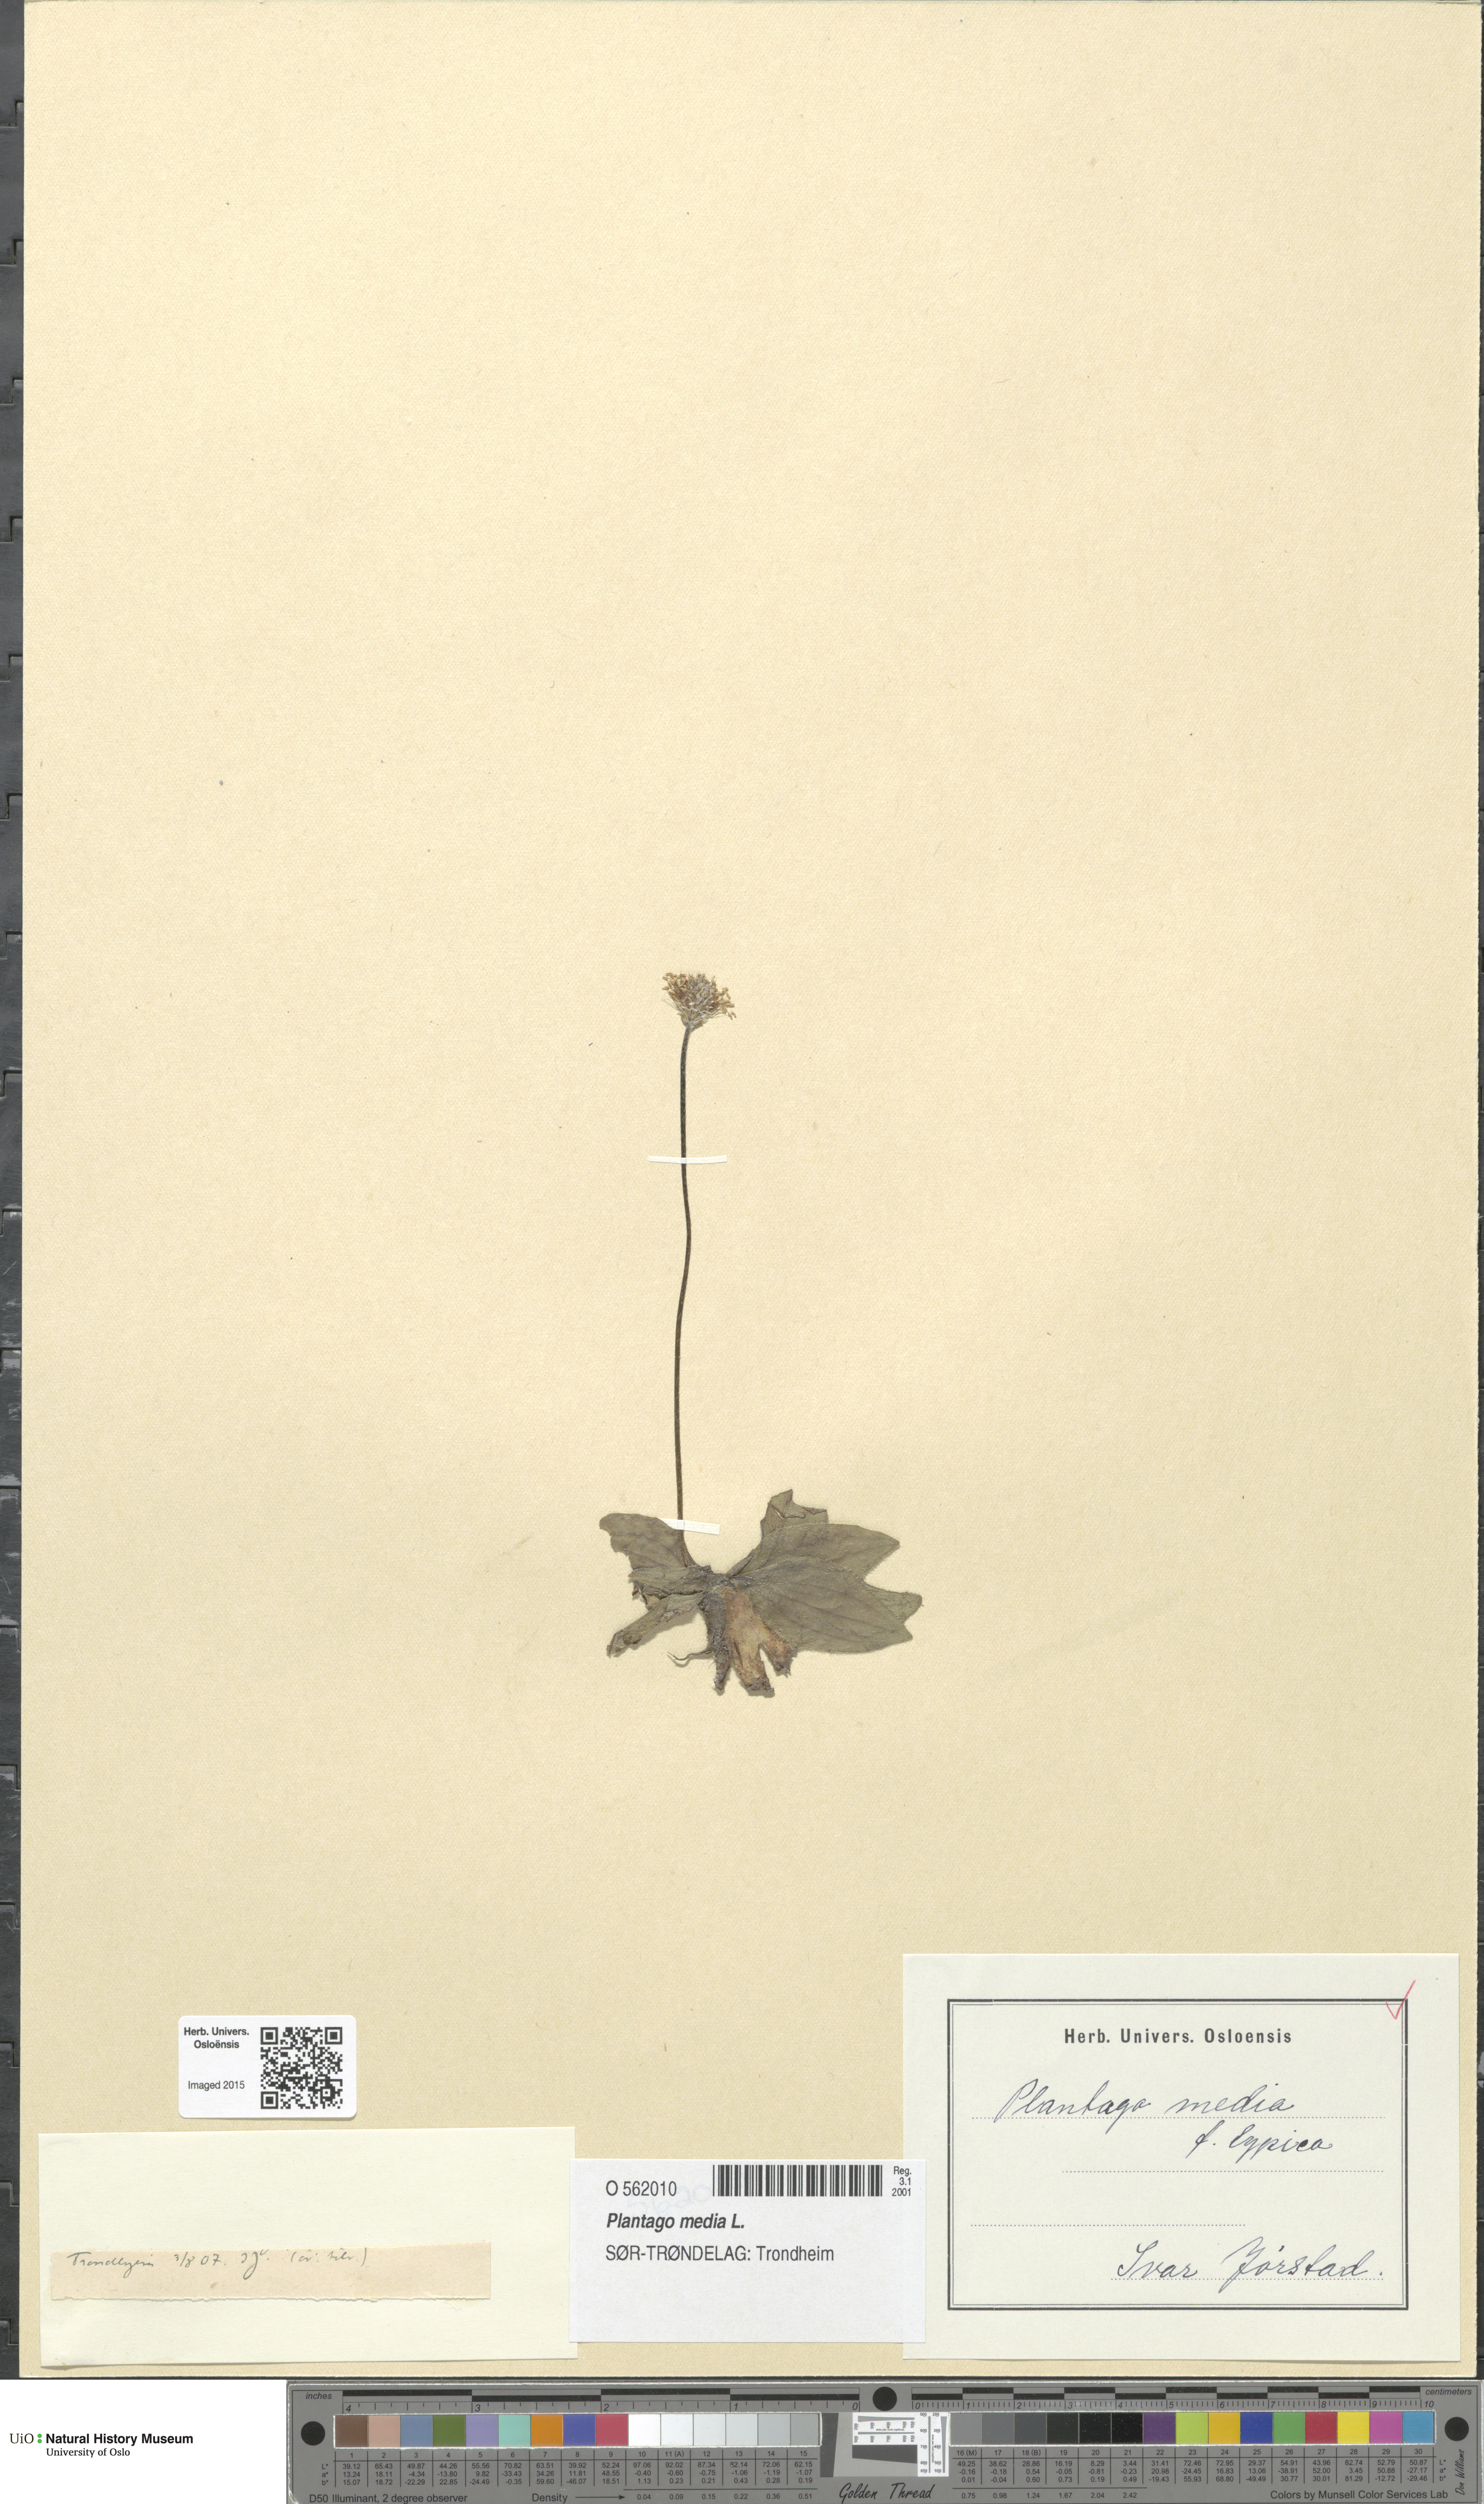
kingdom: Plantae
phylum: Tracheophyta
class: Magnoliopsida
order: Lamiales
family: Plantaginaceae
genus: Plantago
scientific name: Plantago media
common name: Hoary plantain
